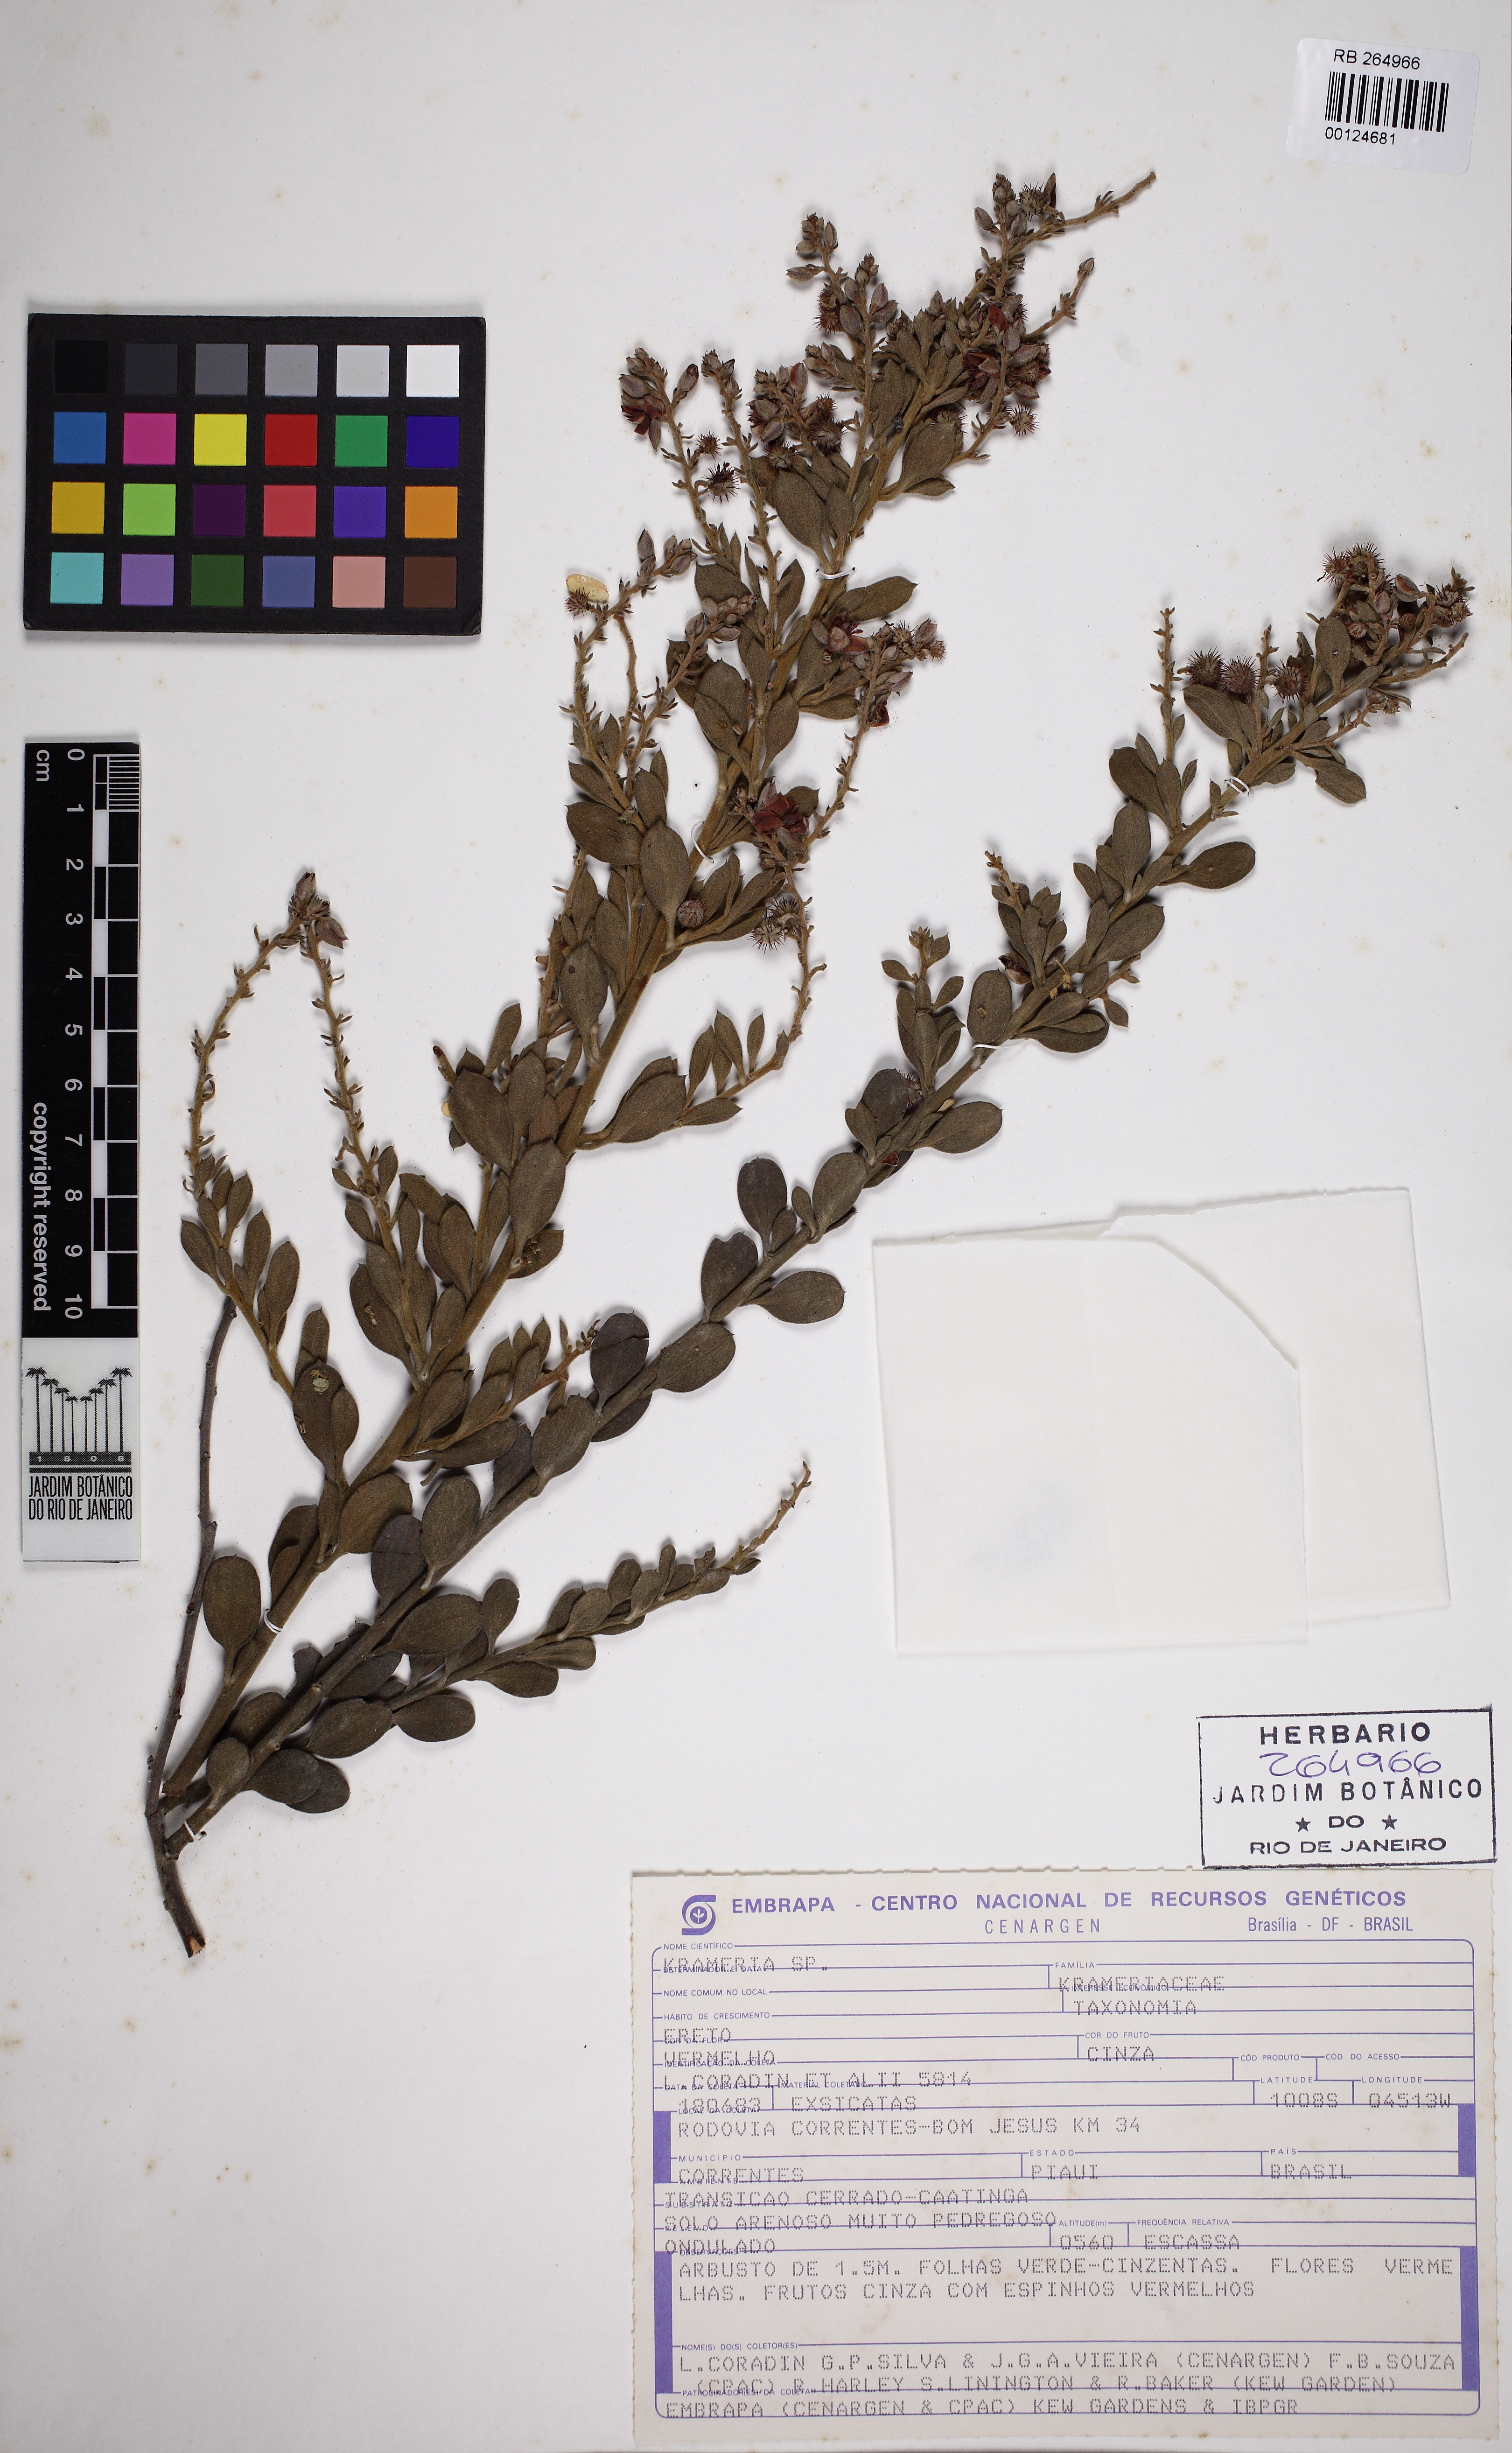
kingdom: Plantae
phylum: Tracheophyta
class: Magnoliopsida
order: Zygophyllales
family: Krameriaceae
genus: Krameria
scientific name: Krameria tomentosa
